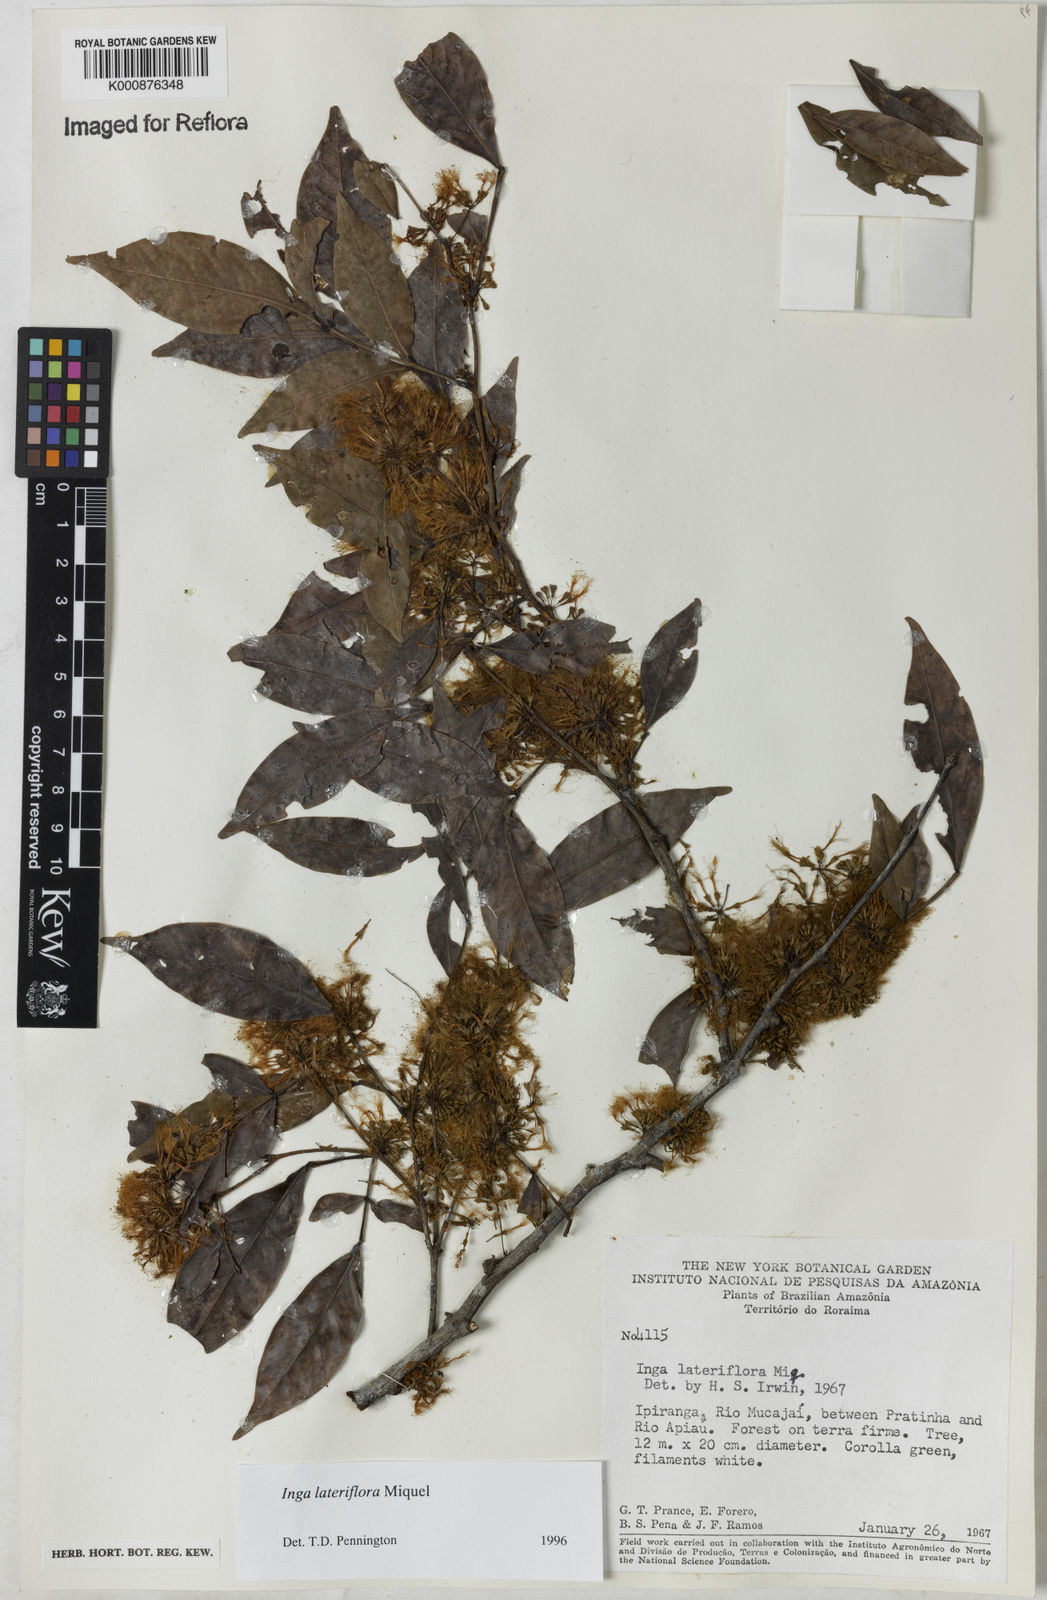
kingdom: Plantae
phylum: Tracheophyta
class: Magnoliopsida
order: Fabales
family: Fabaceae
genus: Inga
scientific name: Inga lateriflora
